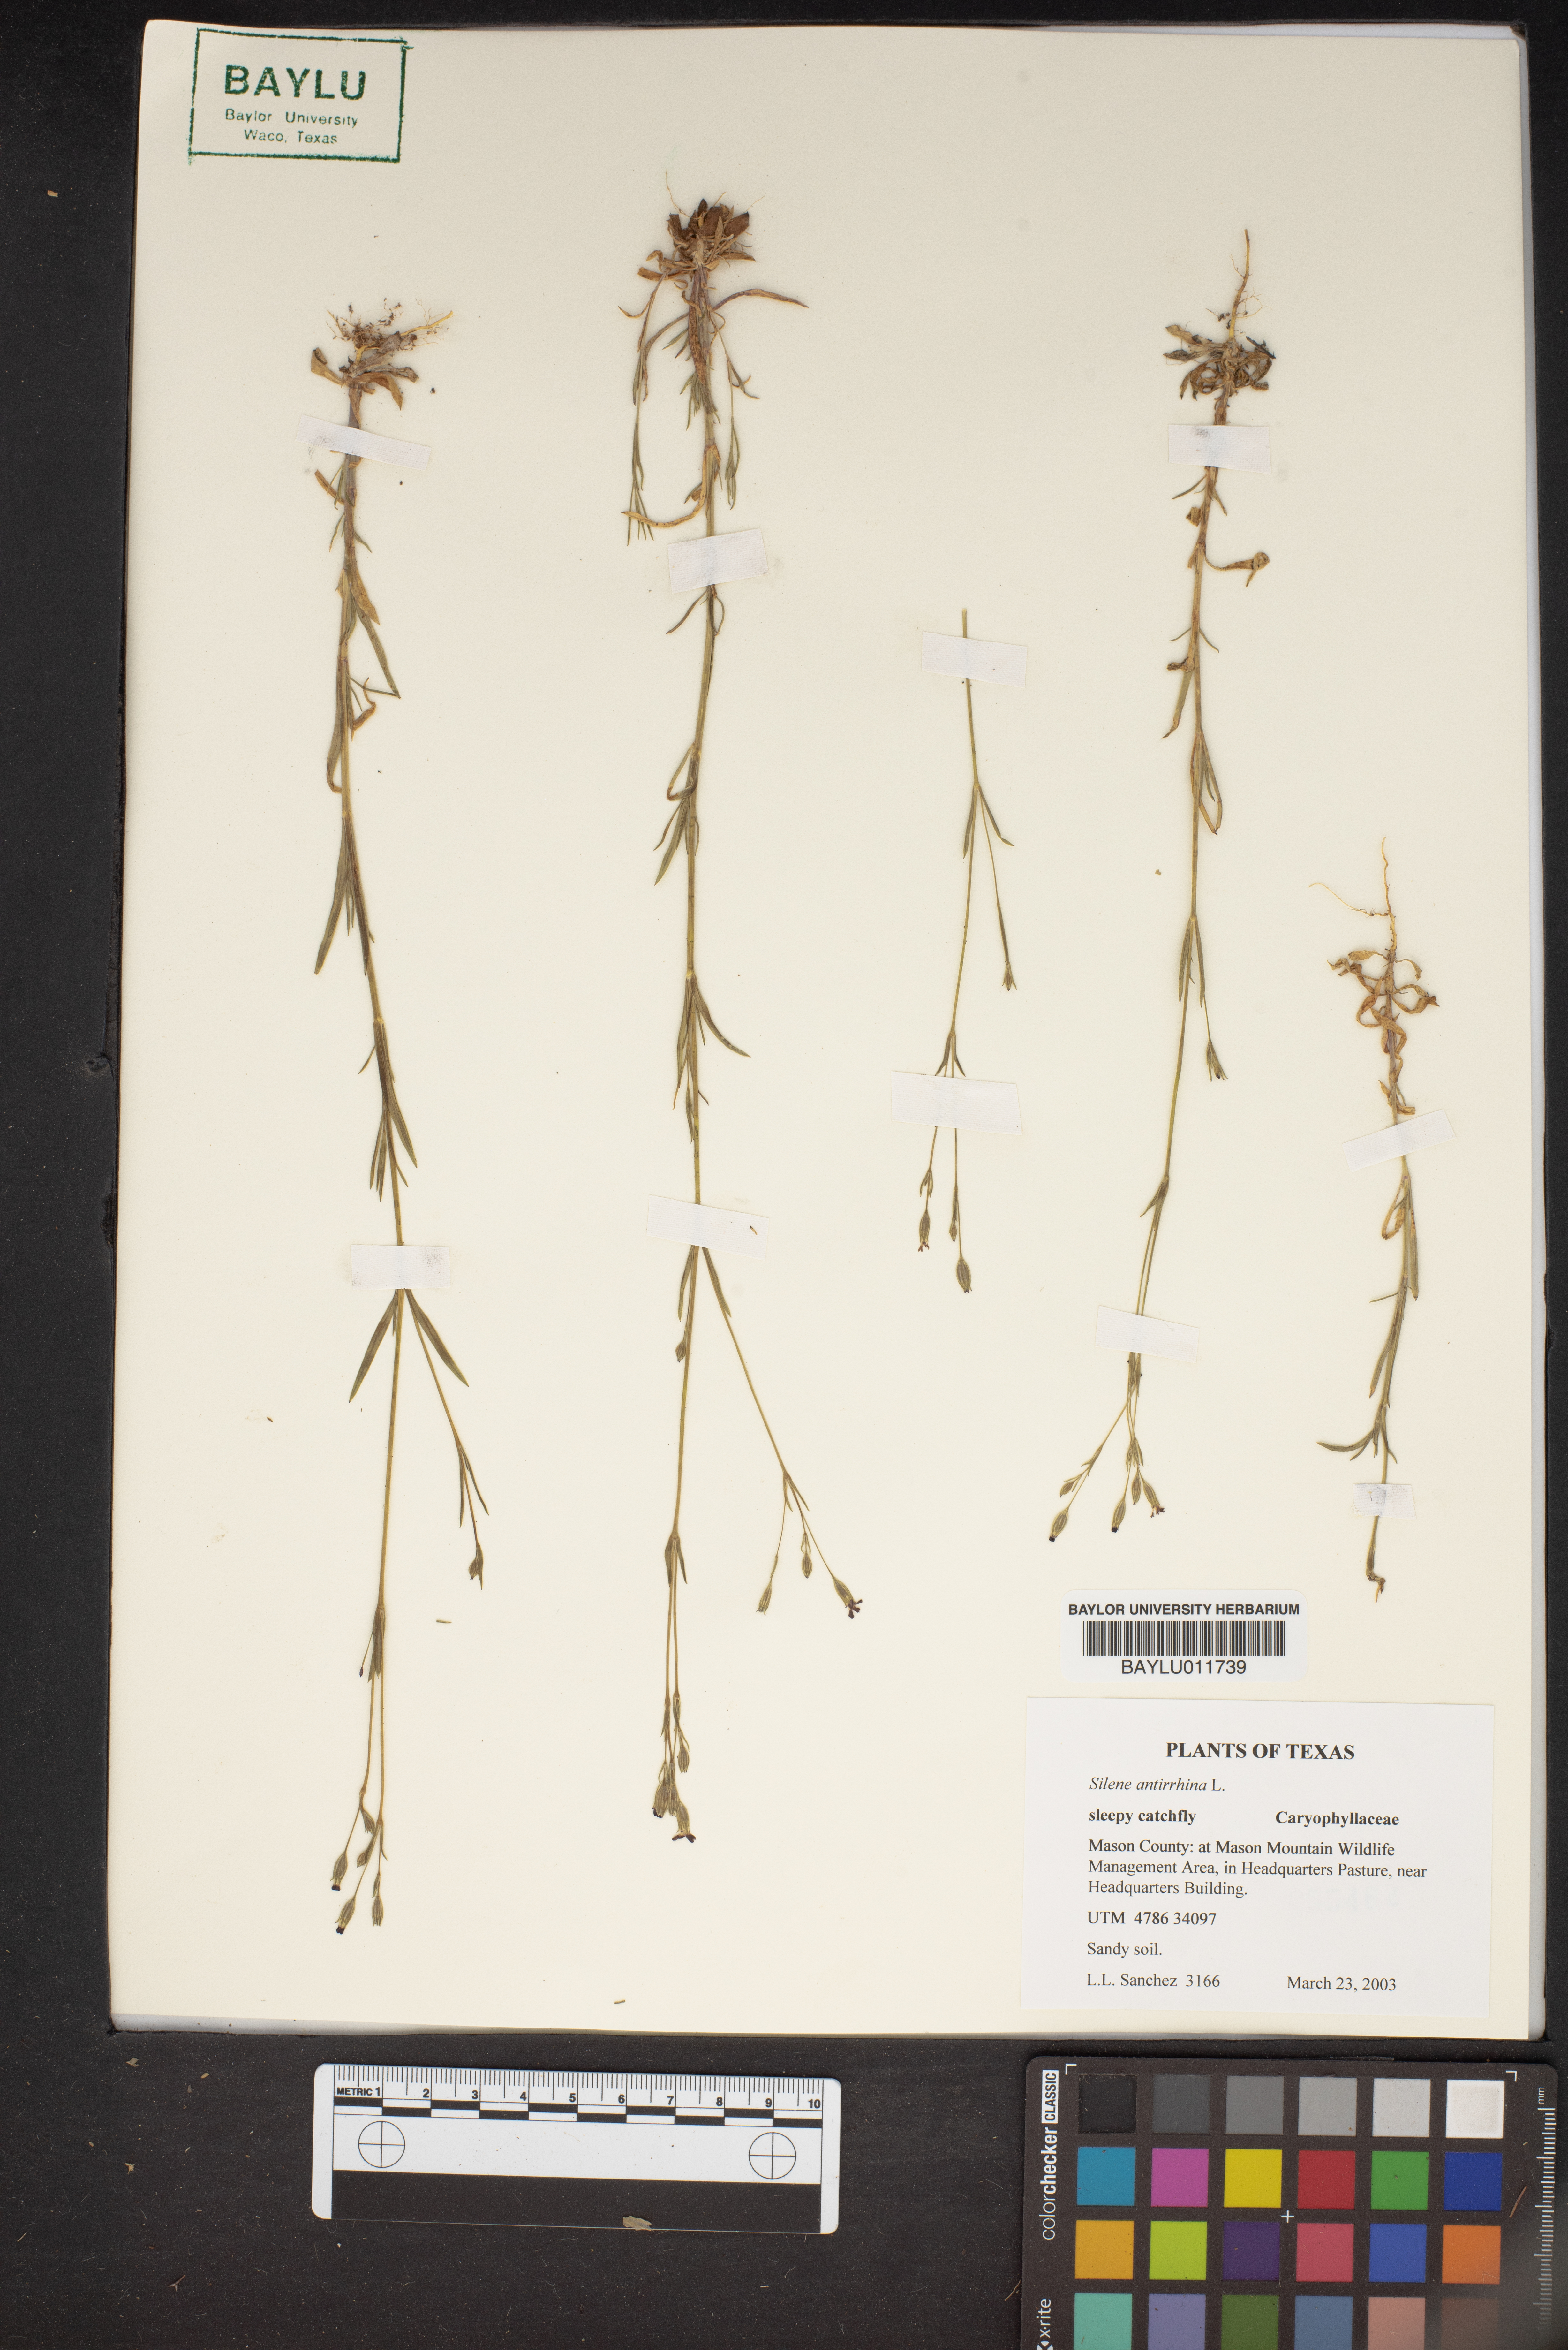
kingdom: Plantae
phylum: Tracheophyta
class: Magnoliopsida
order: Caryophyllales
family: Caryophyllaceae
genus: Silene
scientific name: Silene antirrhina
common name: Sleepy catchfly
